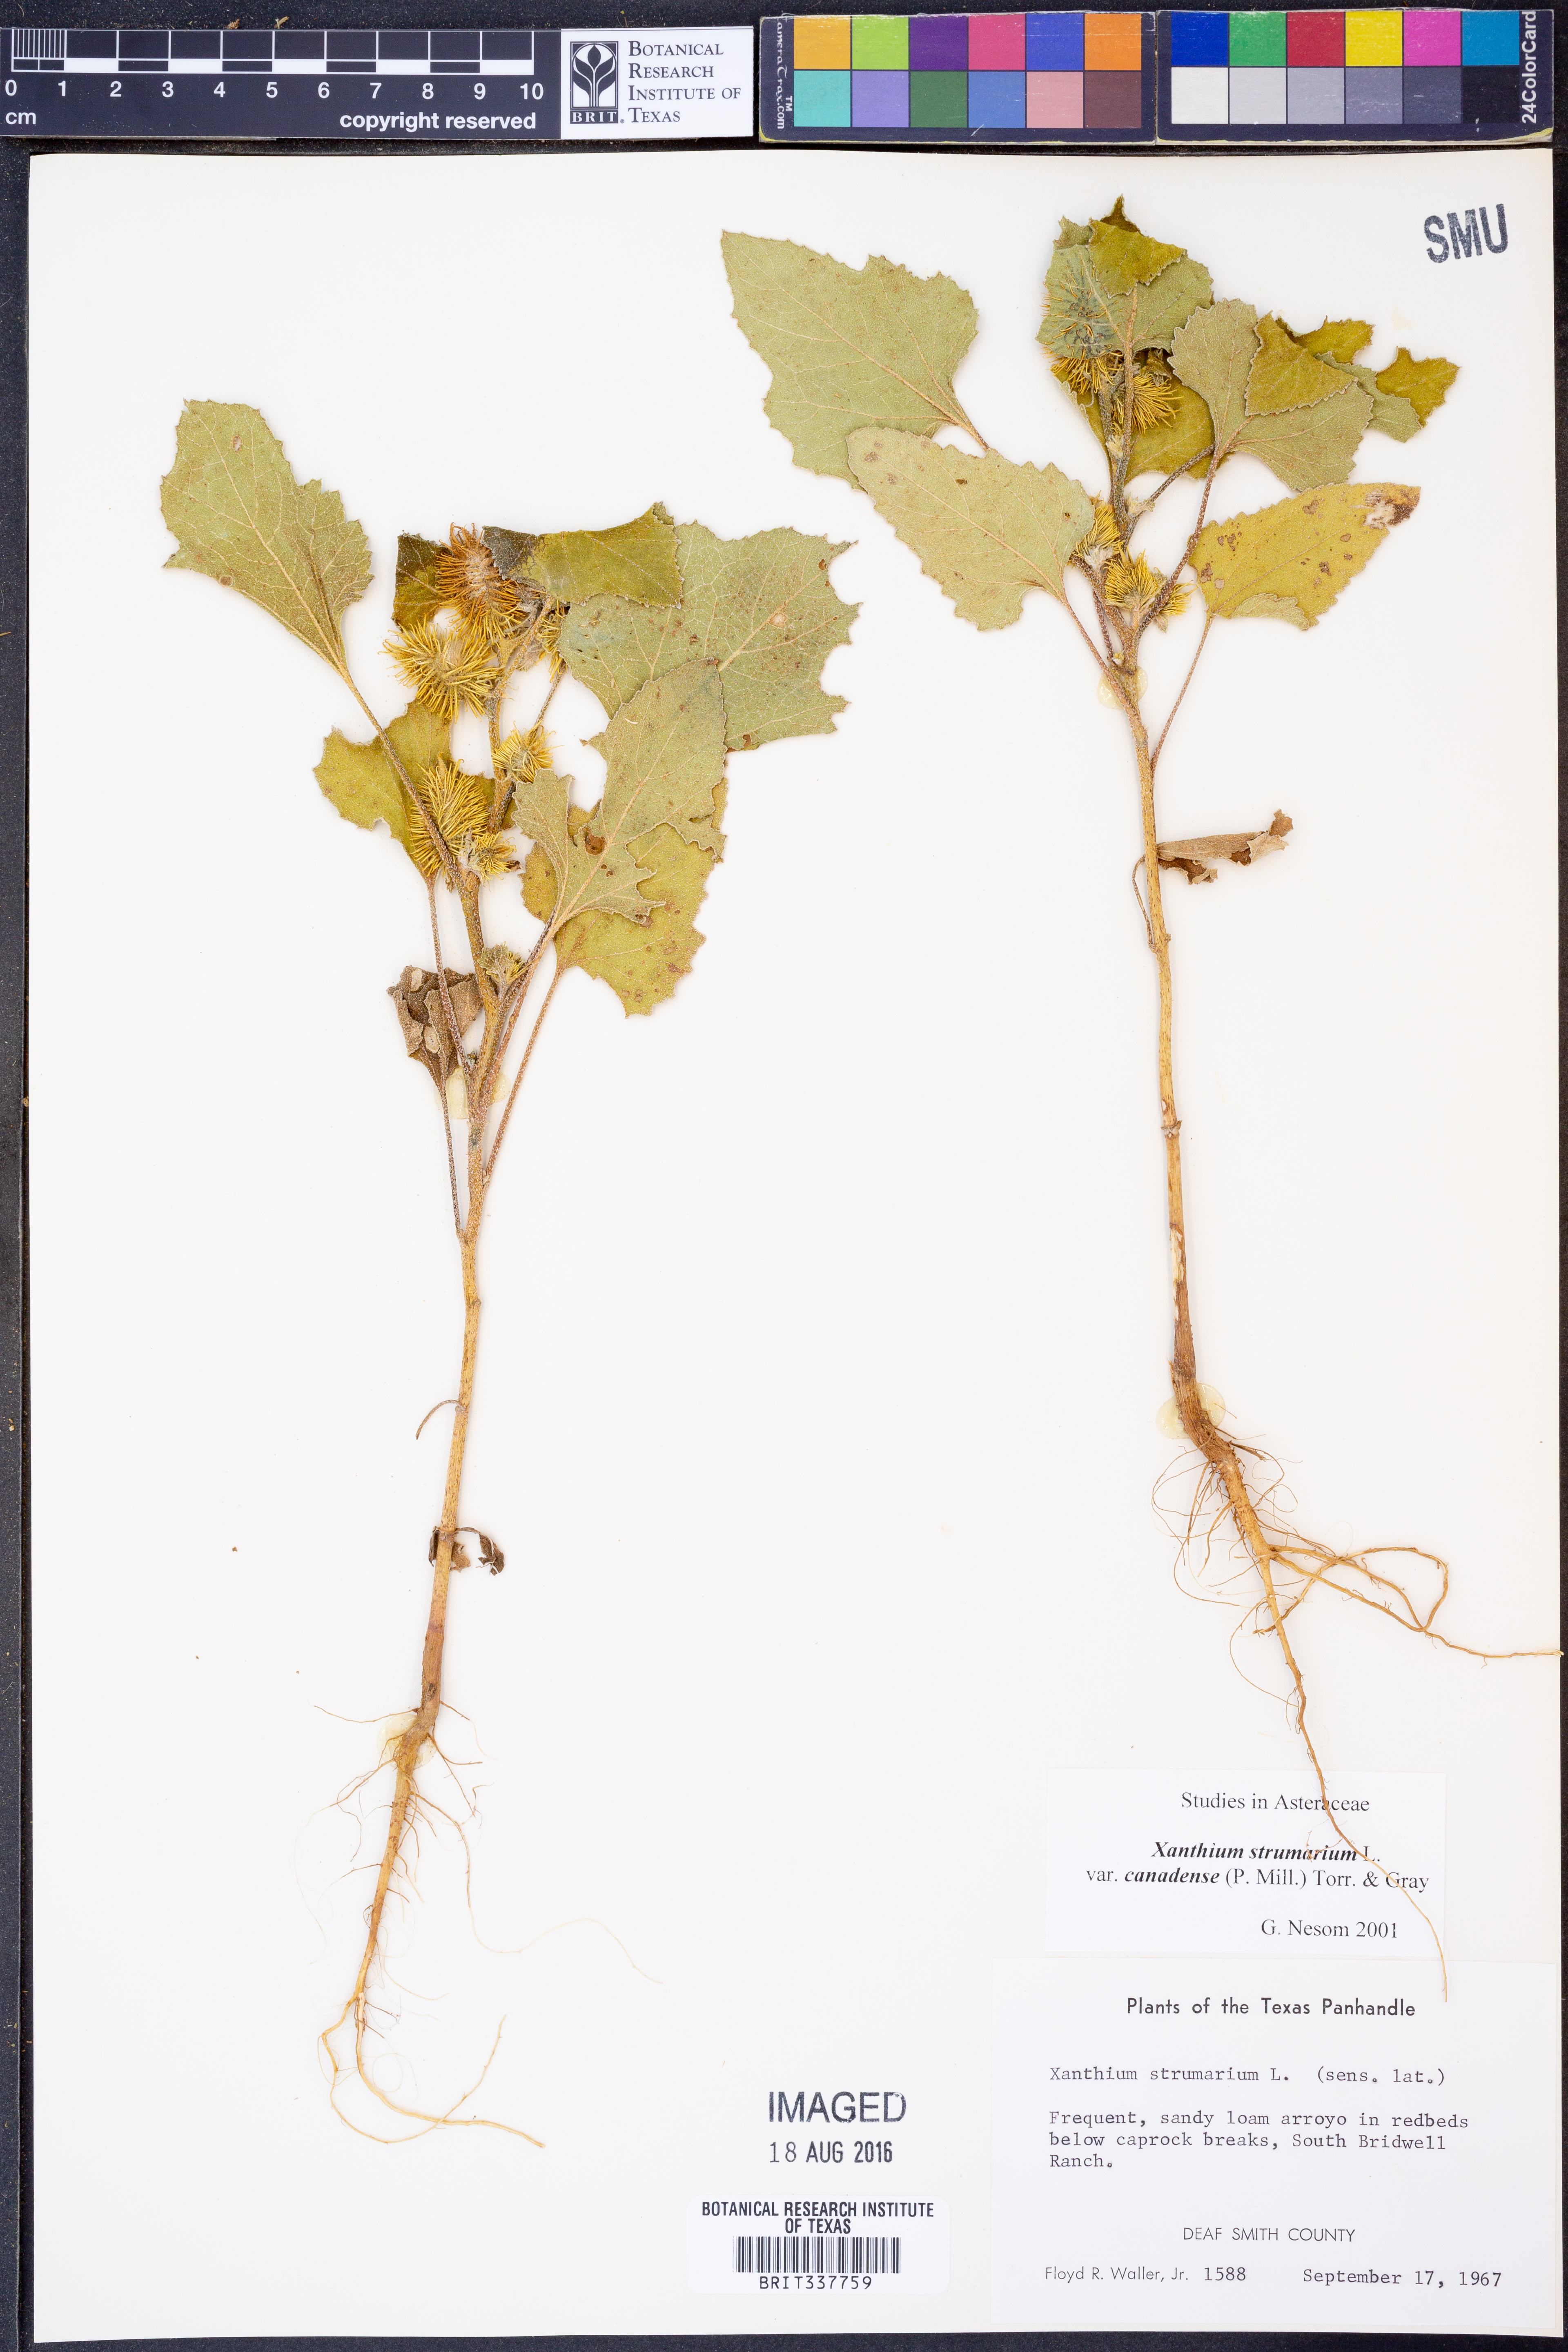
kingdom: Plantae
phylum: Tracheophyta
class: Magnoliopsida
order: Asterales
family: Asteraceae
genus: Xanthium
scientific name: Xanthium orientale
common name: Californian burr
